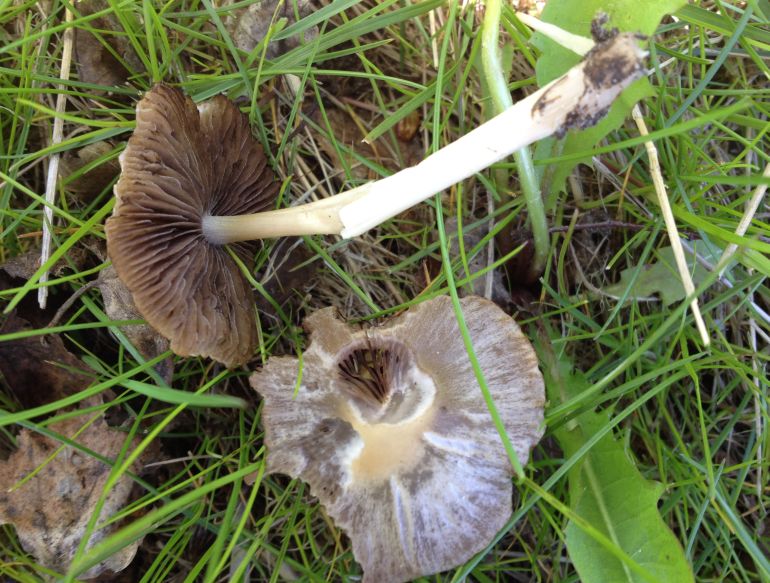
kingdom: Fungi
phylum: Basidiomycota
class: Agaricomycetes
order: Agaricales
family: Psathyrellaceae
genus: Psathyrella
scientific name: Psathyrella spadiceogrisea
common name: gråbrun mørkhat
